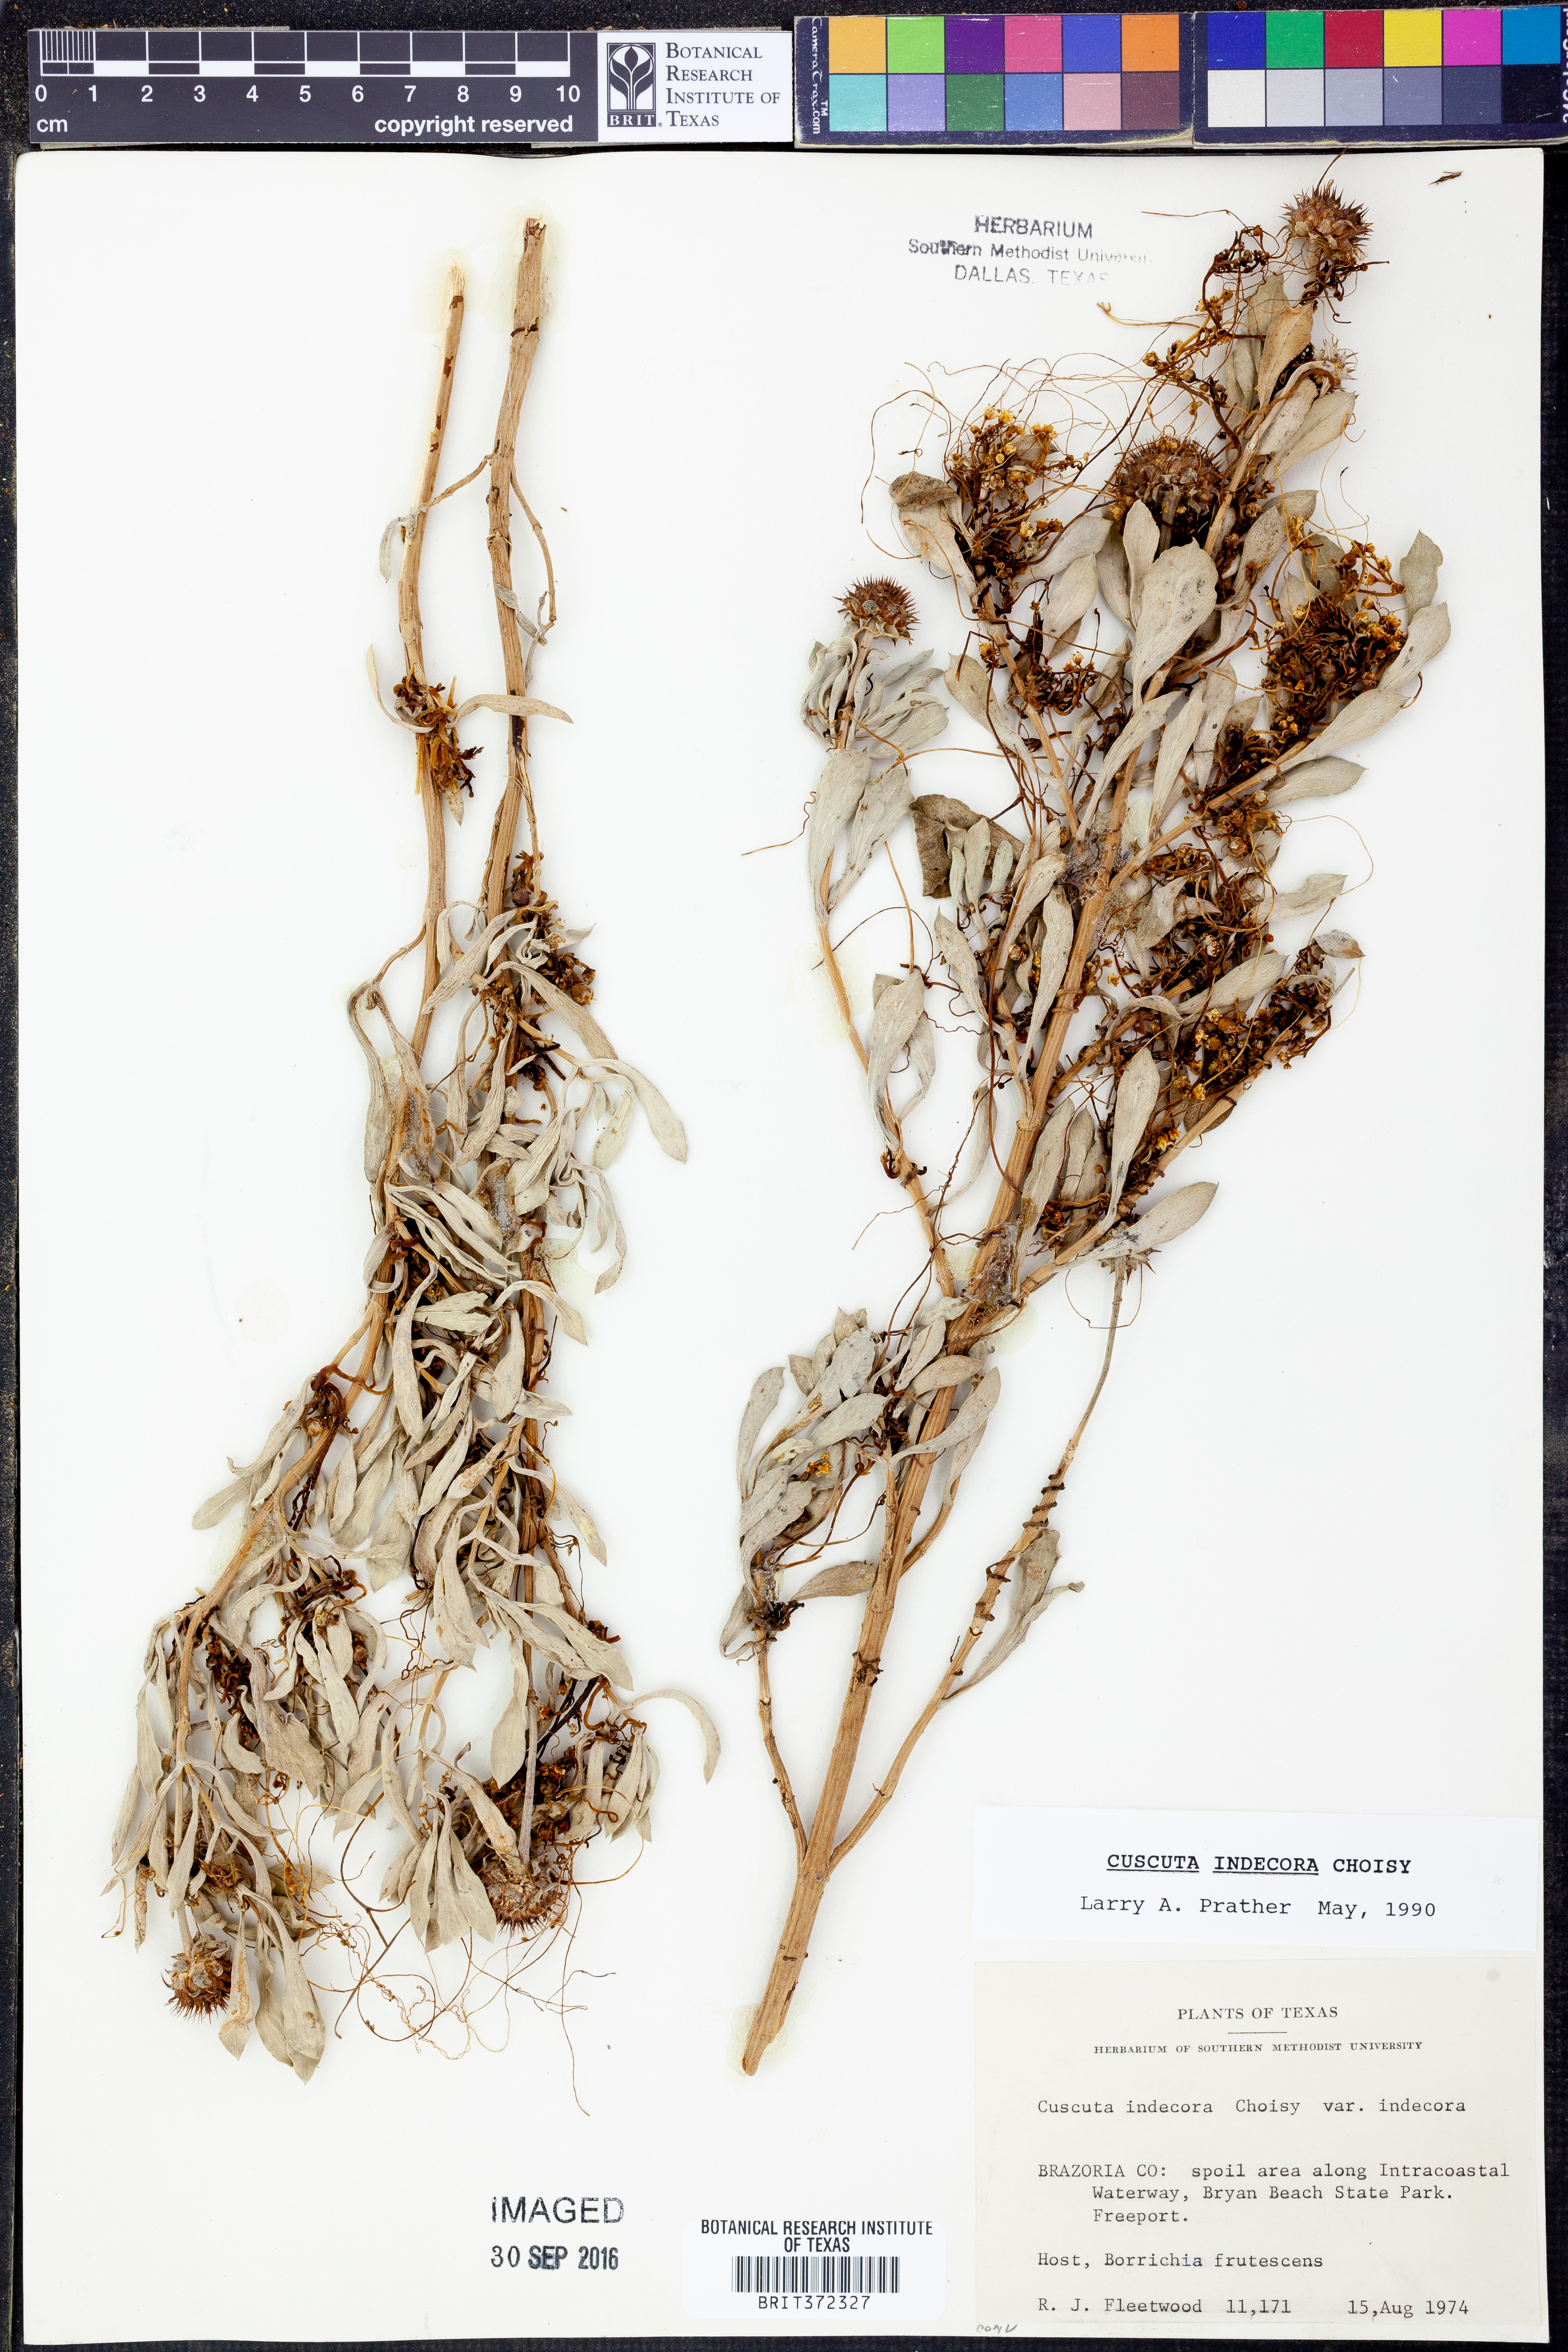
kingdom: Plantae
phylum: Tracheophyta
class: Magnoliopsida
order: Solanales
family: Convolvulaceae
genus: Cuscuta
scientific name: Cuscuta indecora
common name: Large-seed dodder
